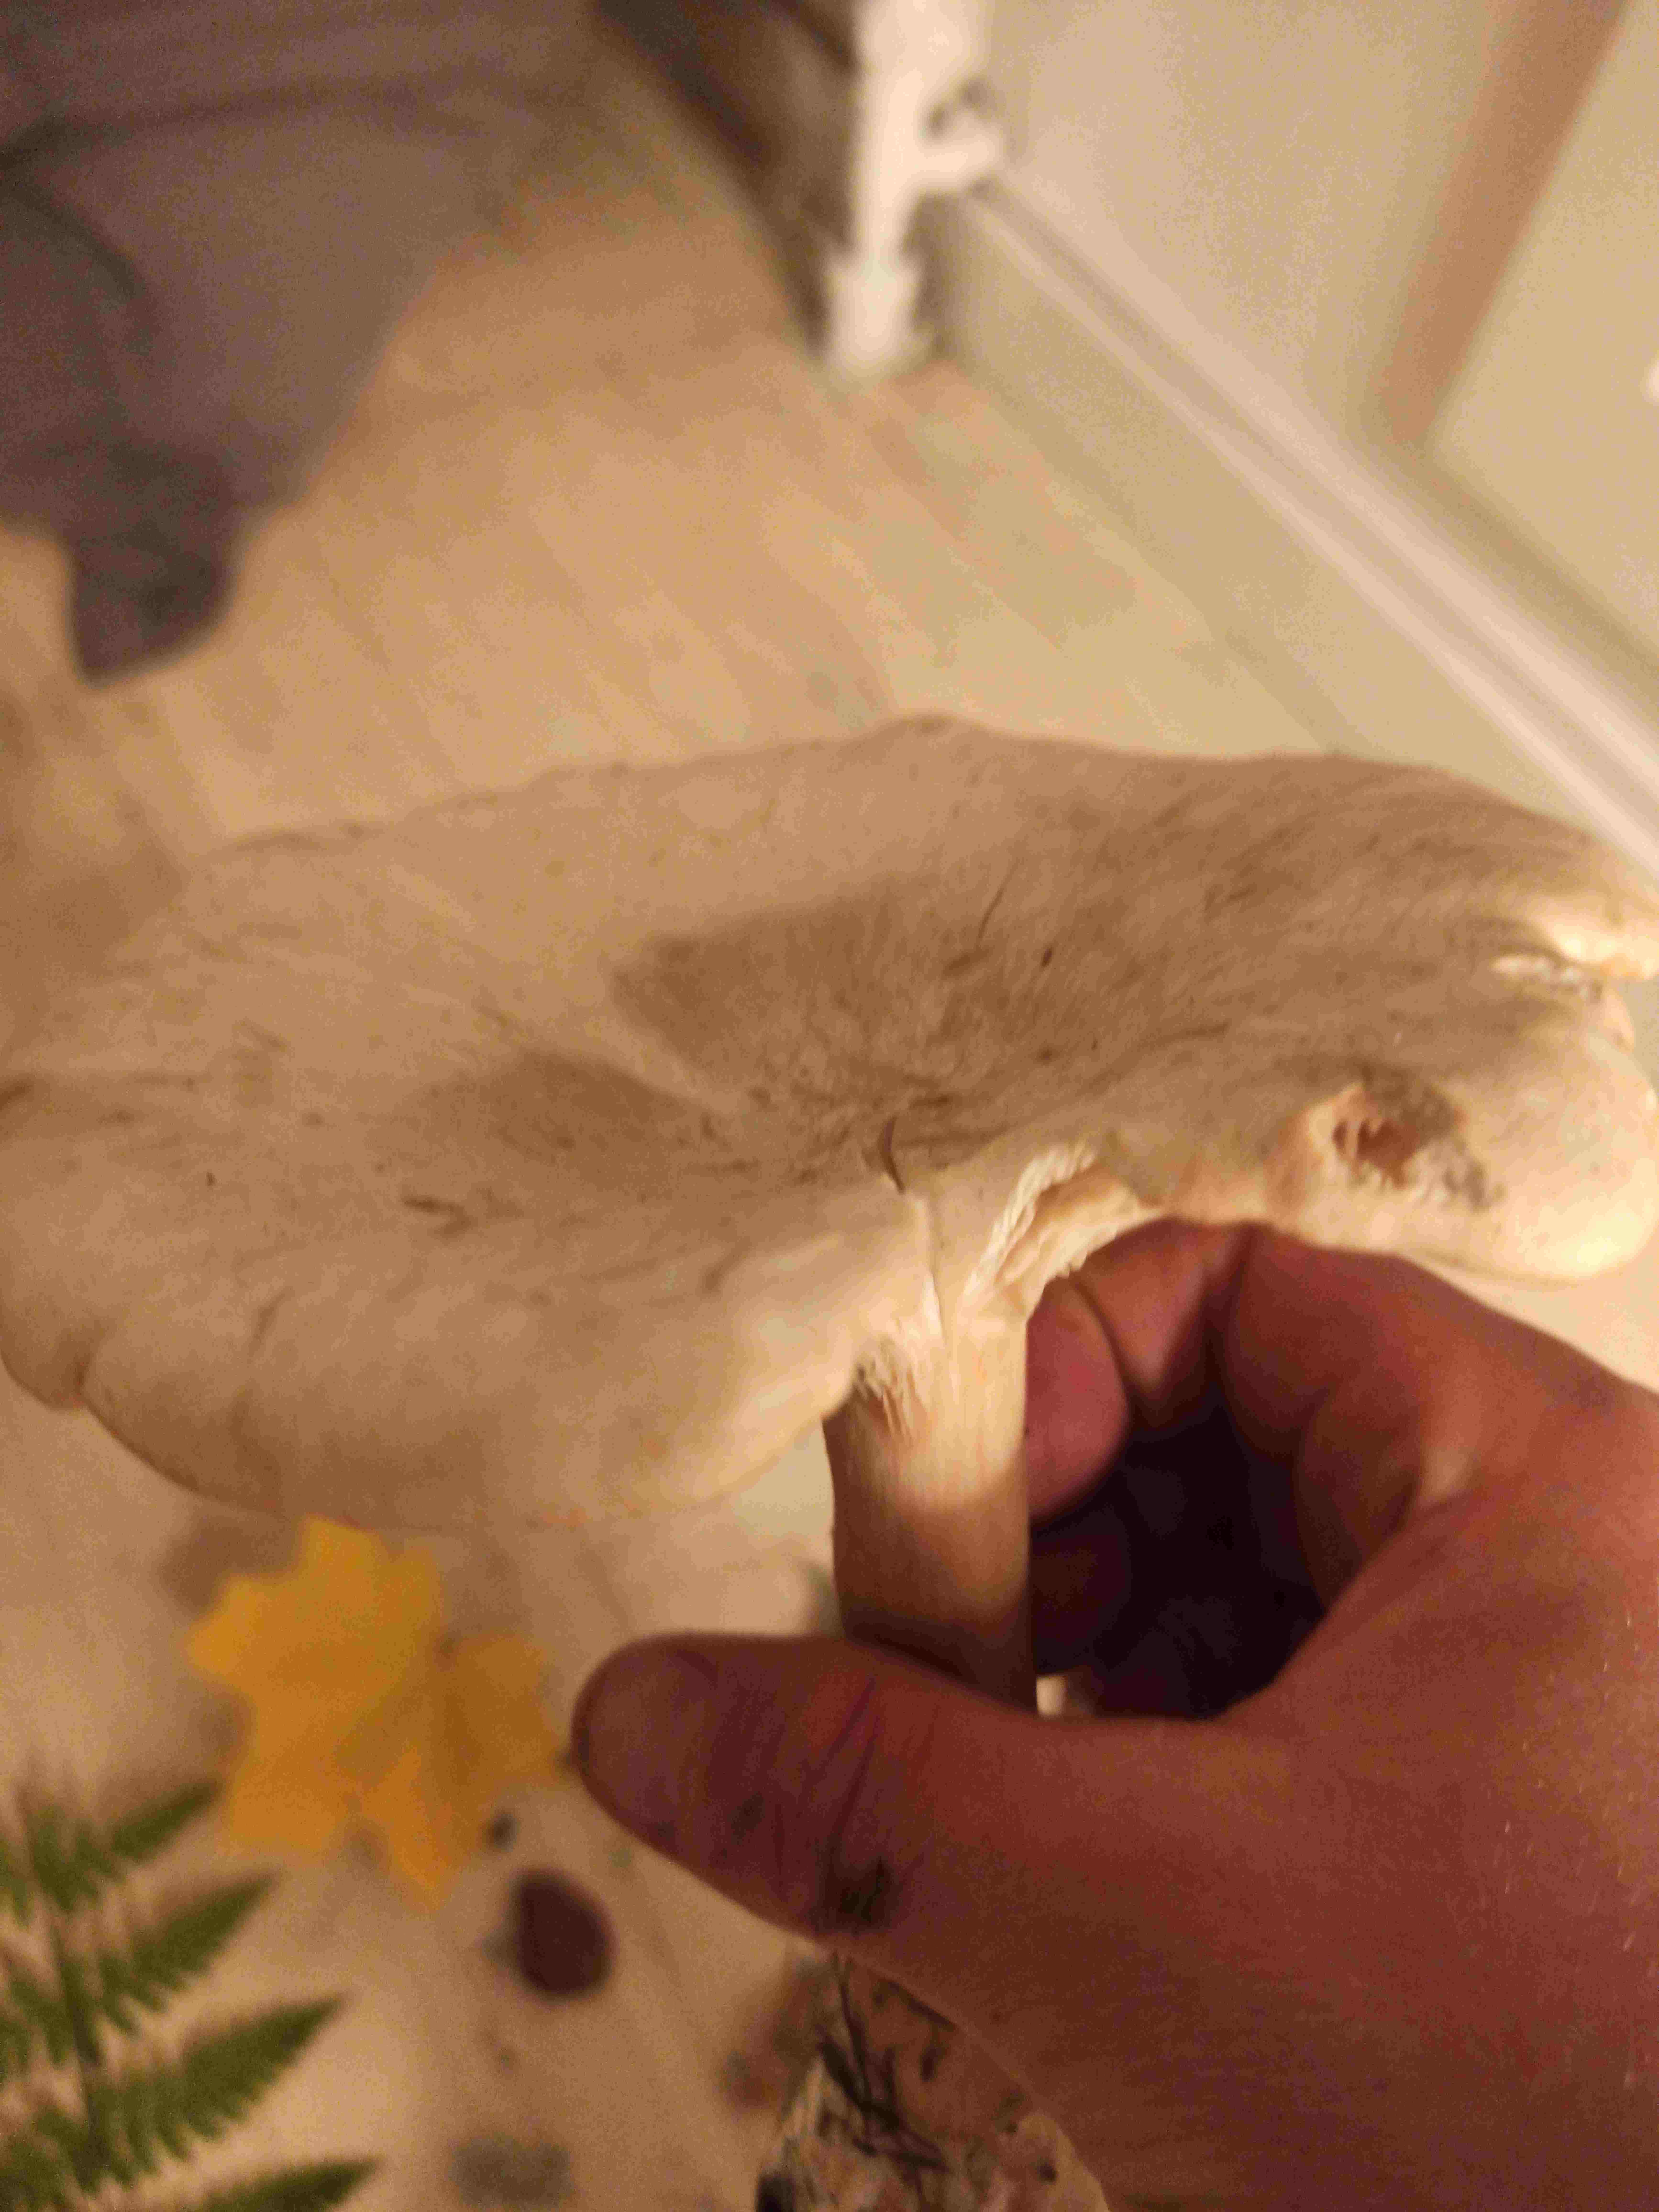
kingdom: Fungi
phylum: Basidiomycota
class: Agaricomycetes
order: Agaricales
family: Tricholomataceae
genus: Infundibulicybe
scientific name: Infundibulicybe geotropa
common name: stor tragthat
